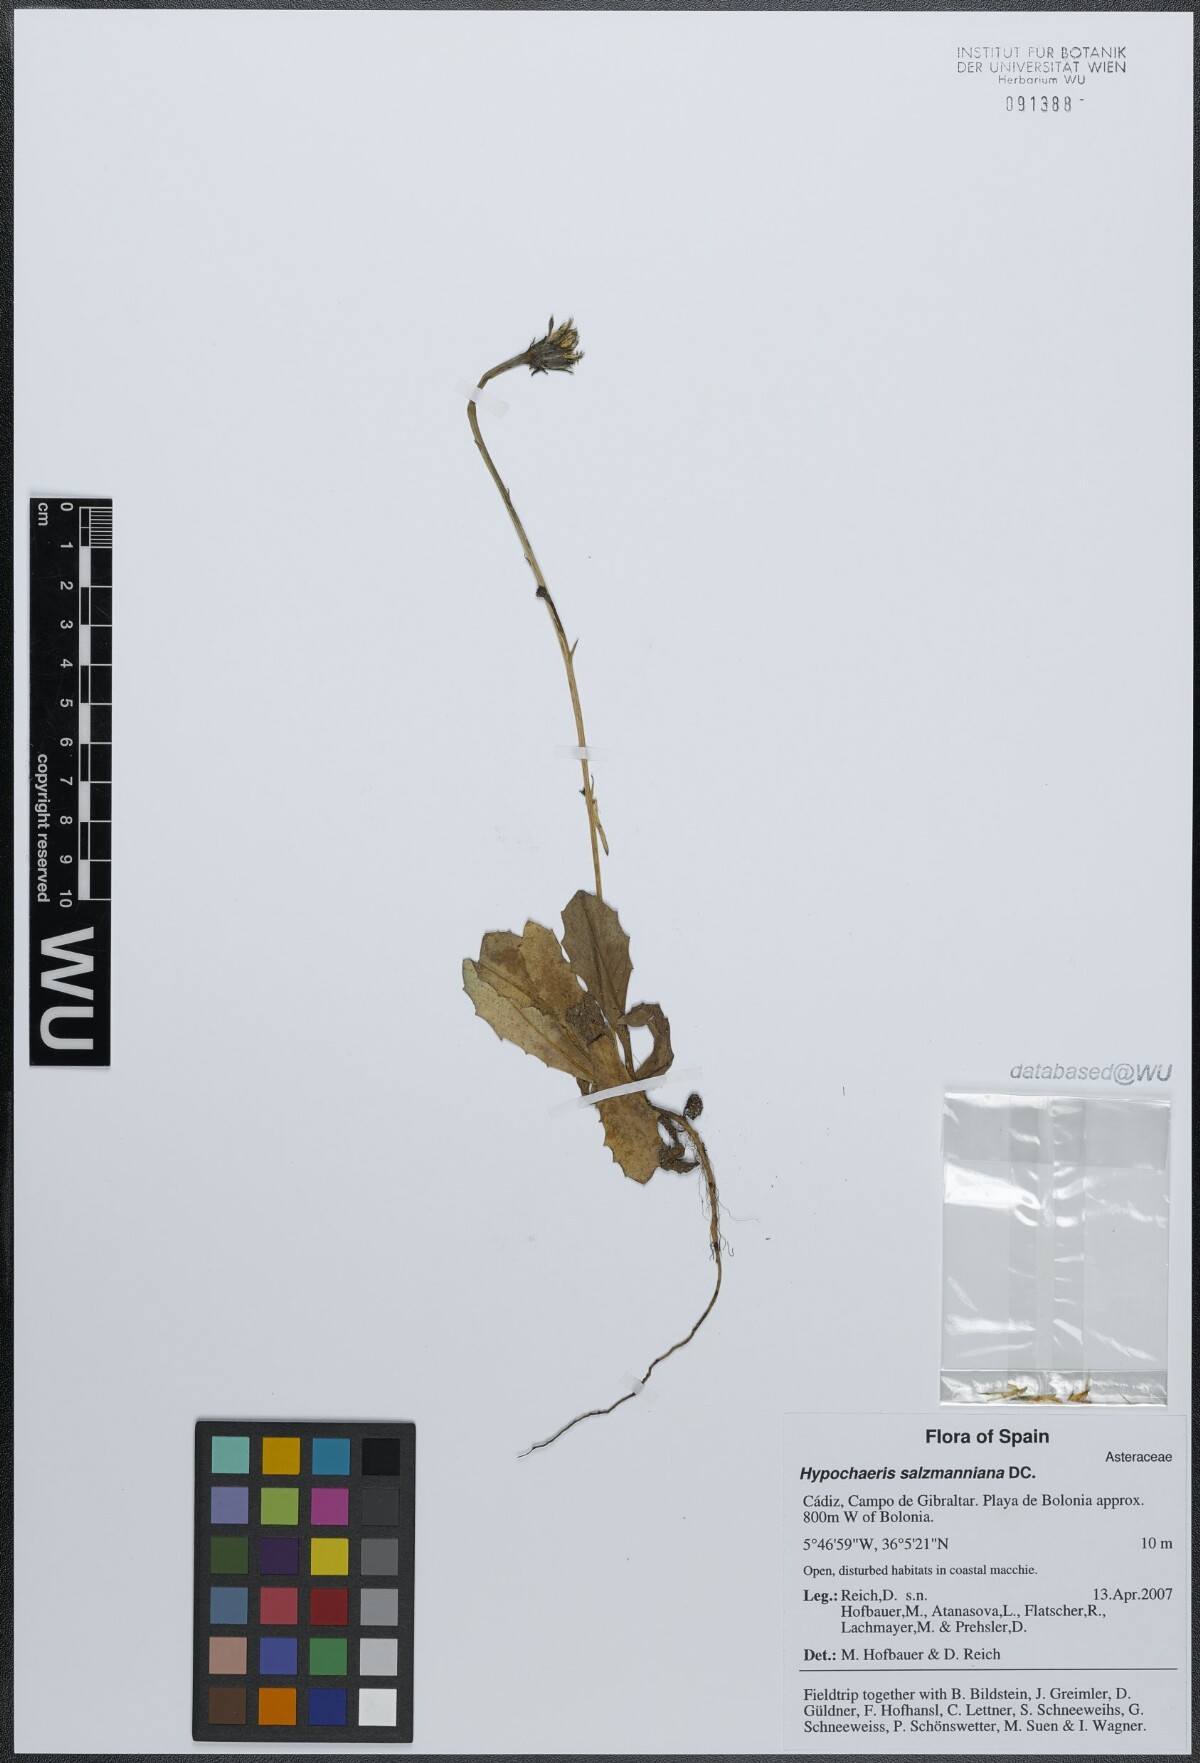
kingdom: Plantae
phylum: Tracheophyta
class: Magnoliopsida
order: Asterales
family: Asteraceae
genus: Hypochaeris
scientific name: Hypochaeris salzmanniana
